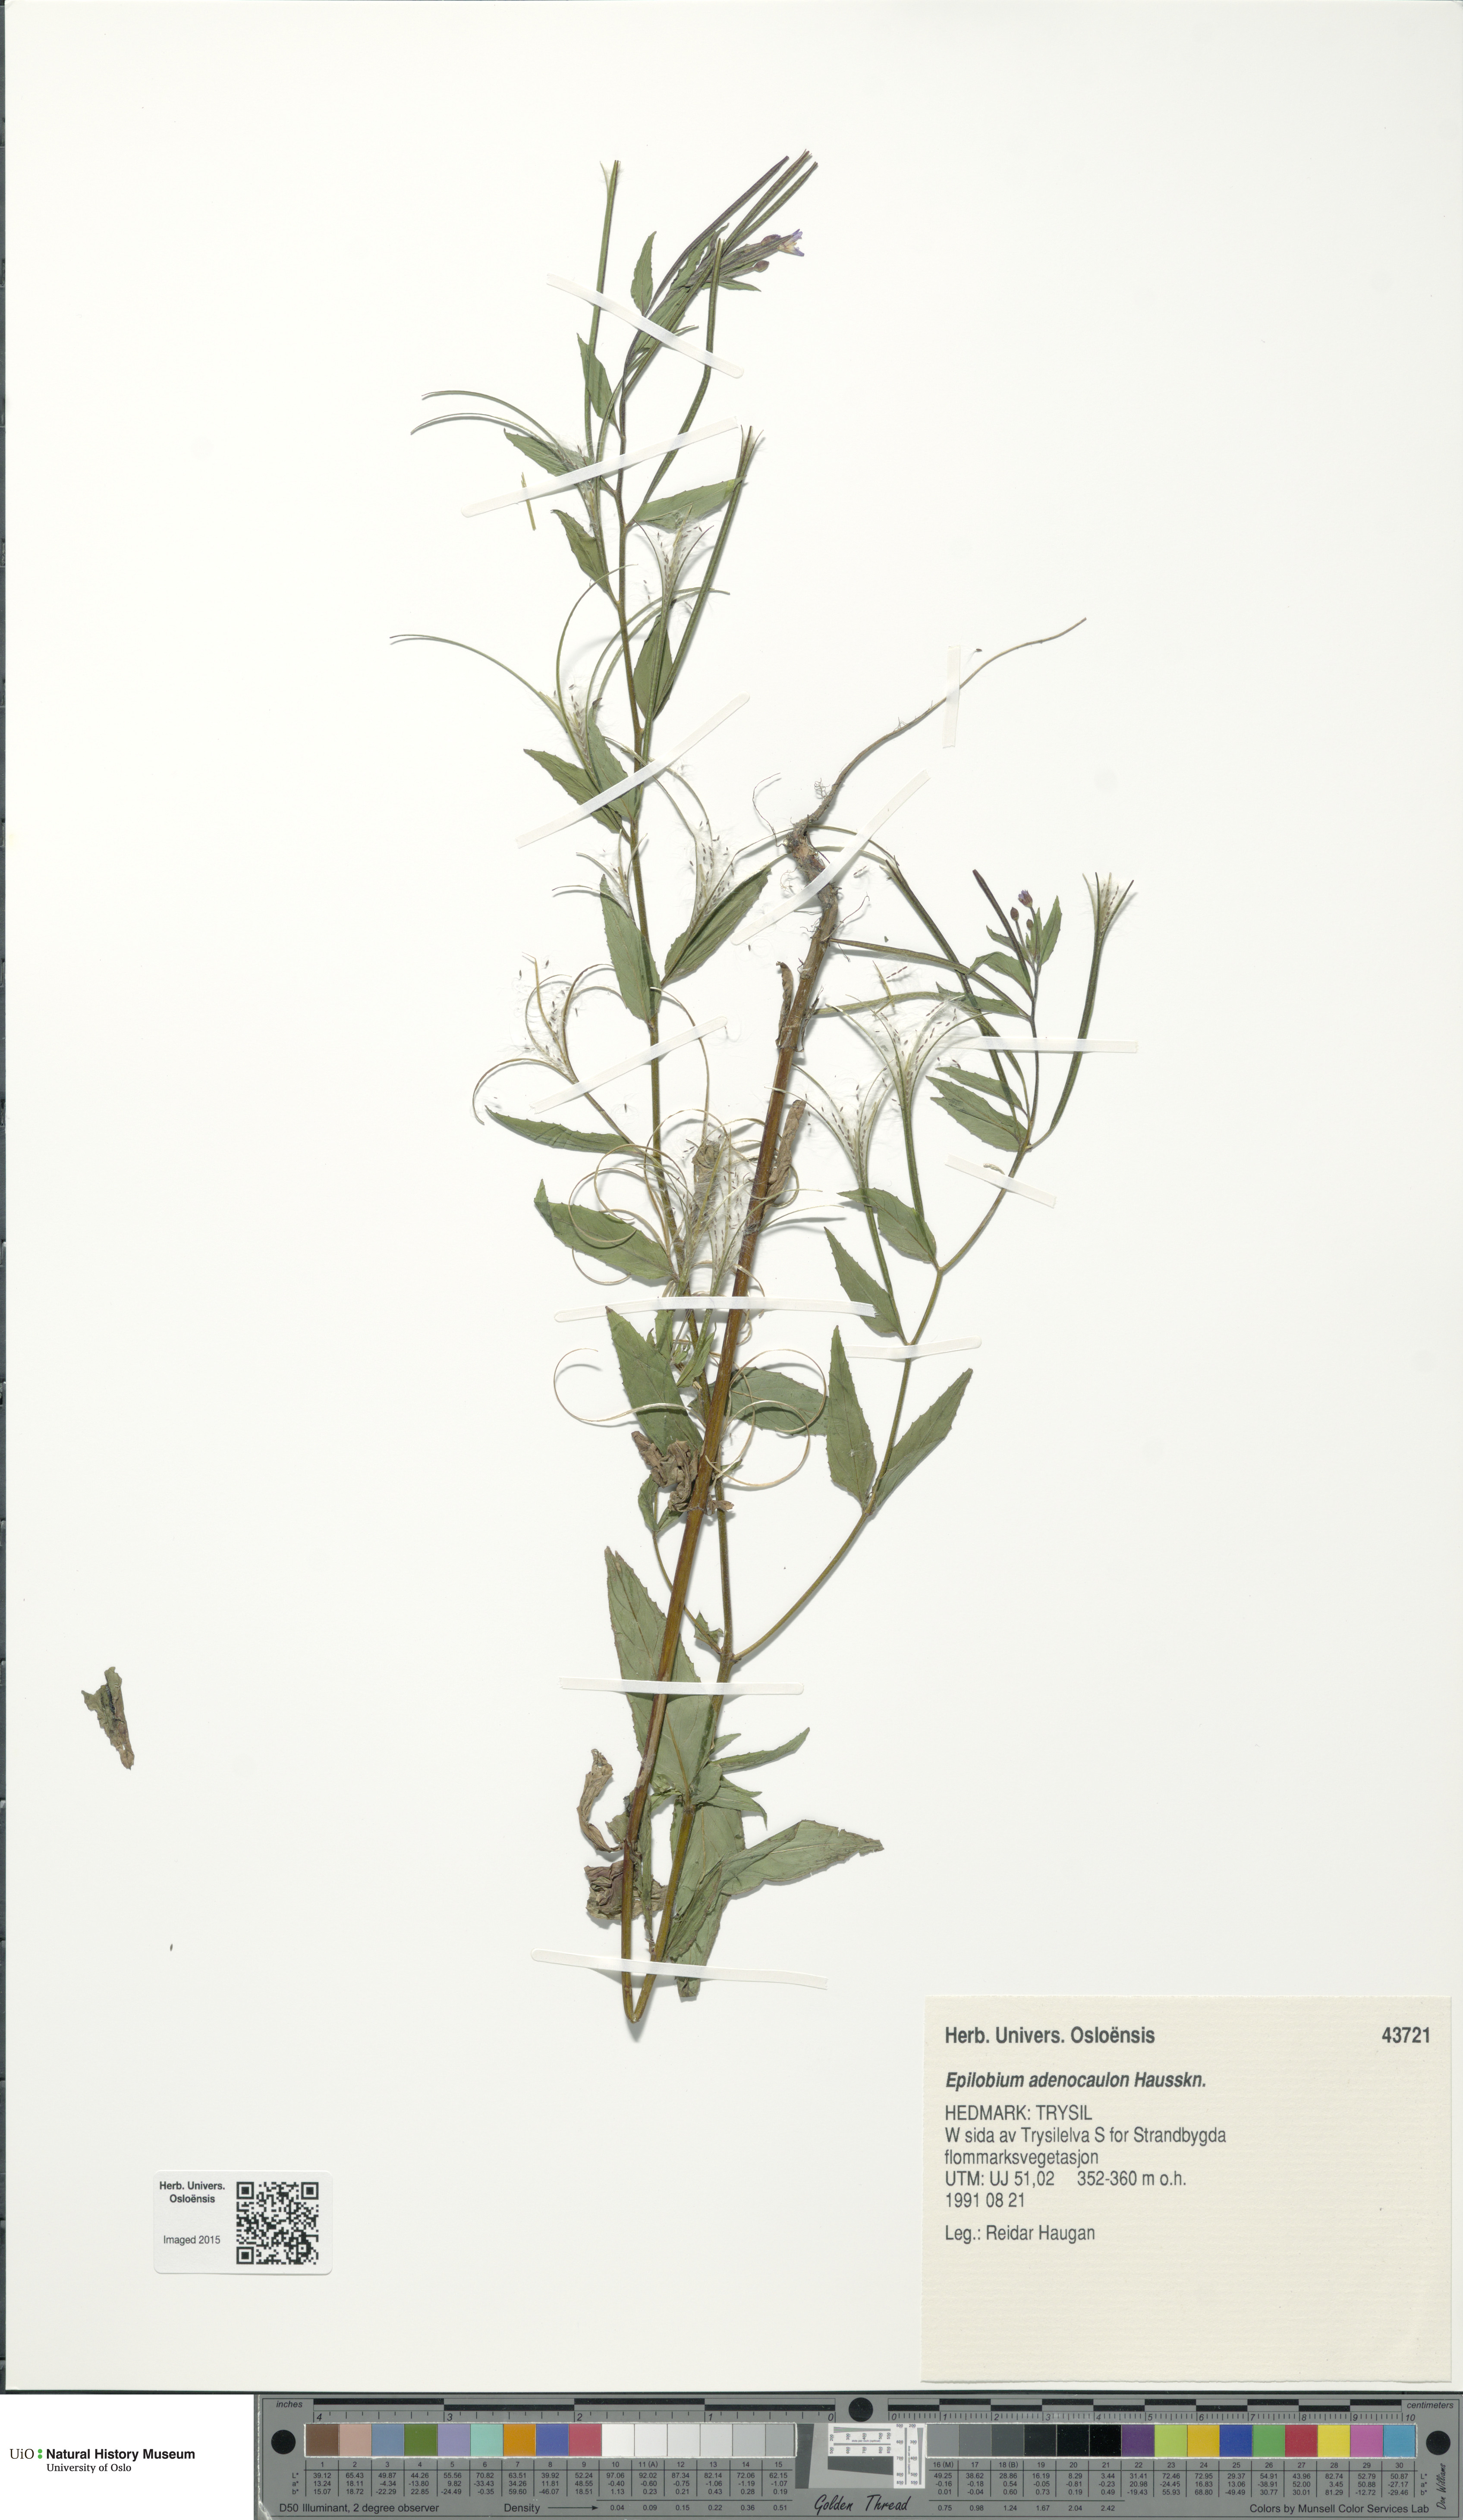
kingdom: Plantae
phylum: Tracheophyta
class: Magnoliopsida
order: Myrtales
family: Onagraceae
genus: Epilobium
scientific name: Epilobium ciliatum
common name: American willowherb
